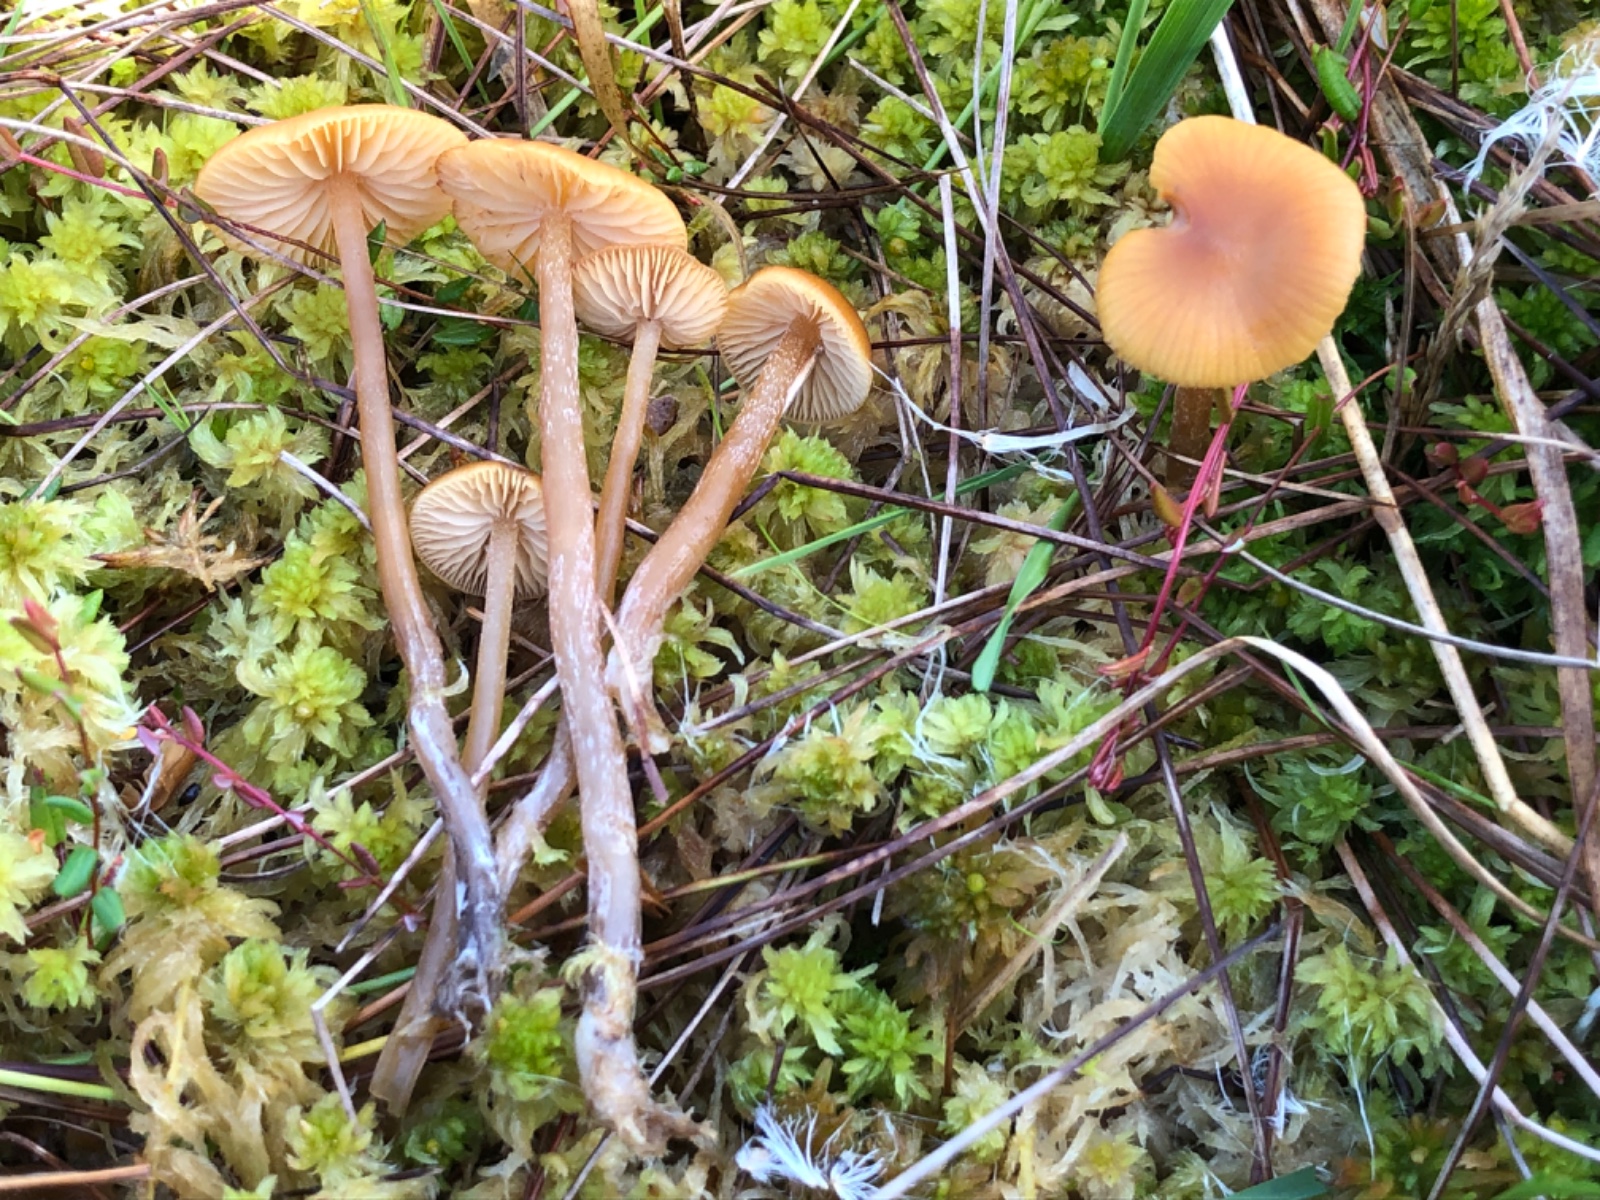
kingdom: Fungi
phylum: Basidiomycota
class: Agaricomycetes
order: Agaricales
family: Hymenogastraceae
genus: Galerina
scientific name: Galerina hybrida
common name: hængesæk-hjelmhat
